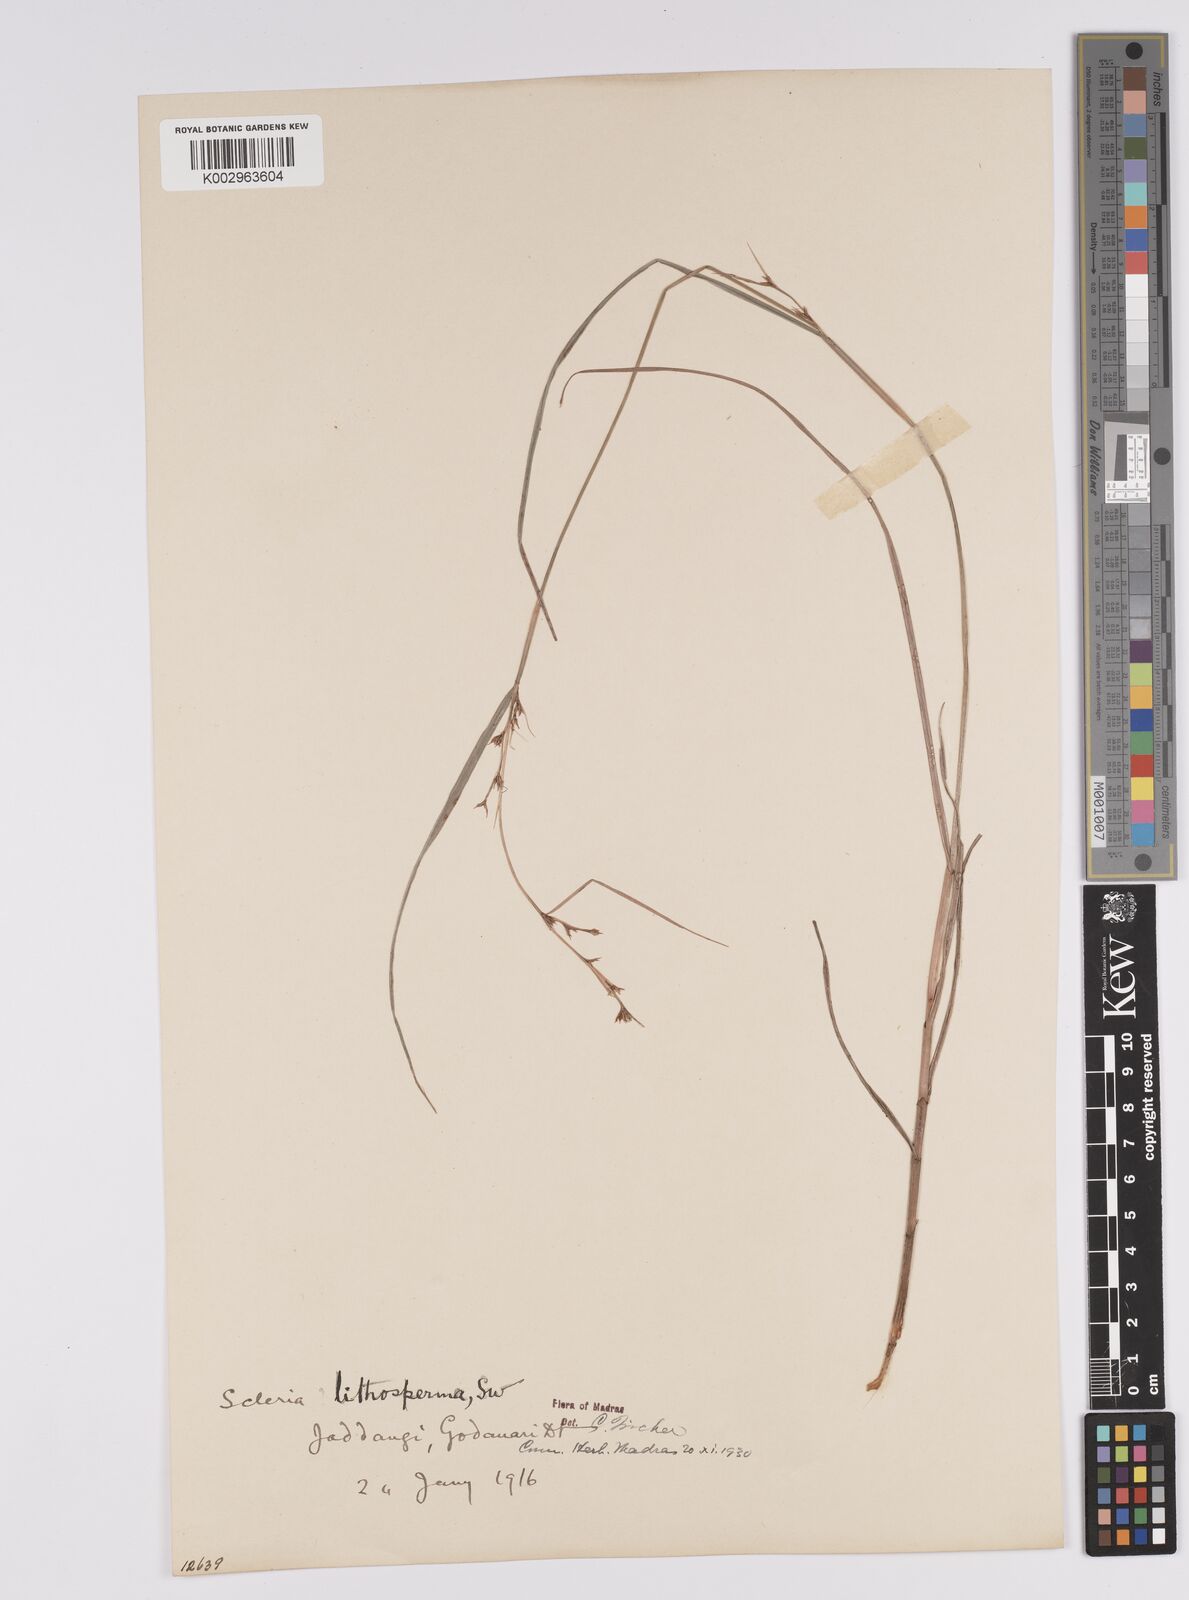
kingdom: Plantae
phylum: Tracheophyta
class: Liliopsida
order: Poales
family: Cyperaceae
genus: Scleria
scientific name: Scleria lithosperma
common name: Florida keys nut-rush
